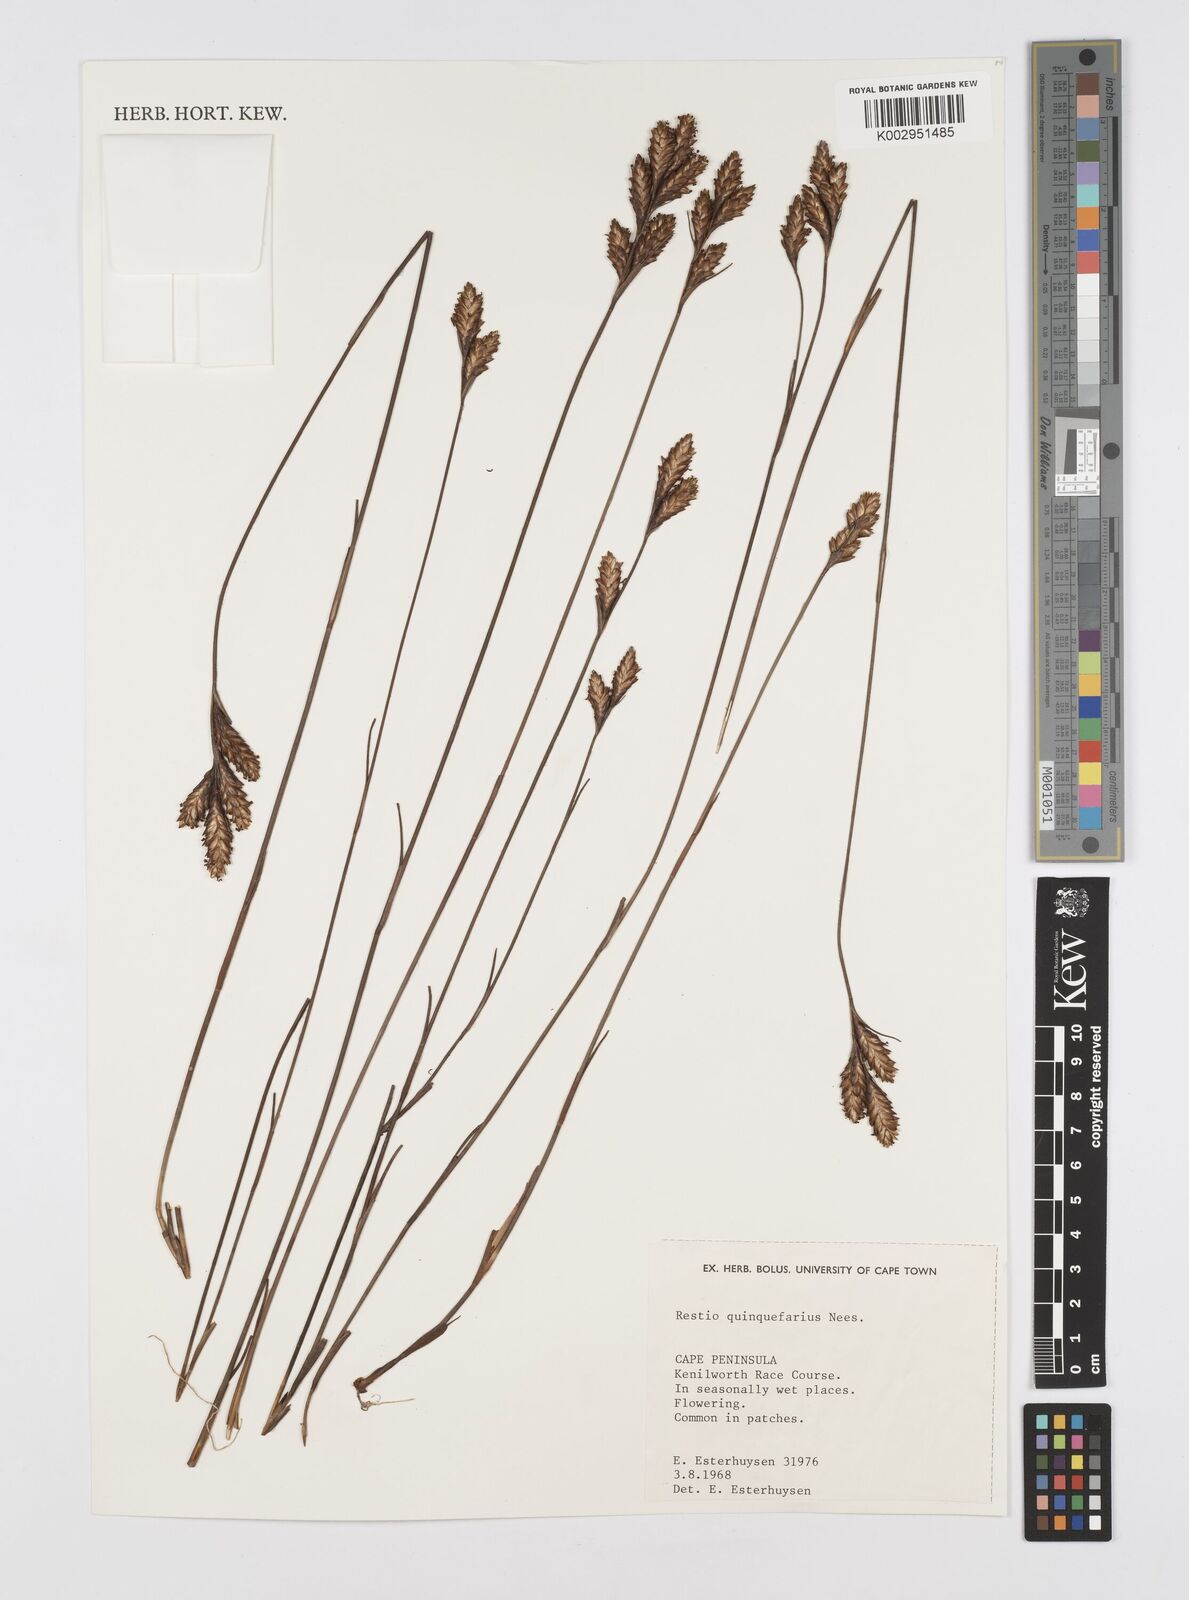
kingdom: Plantae
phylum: Tracheophyta
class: Liliopsida
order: Poales
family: Restionaceae
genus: Restio
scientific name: Restio quinquefarius
